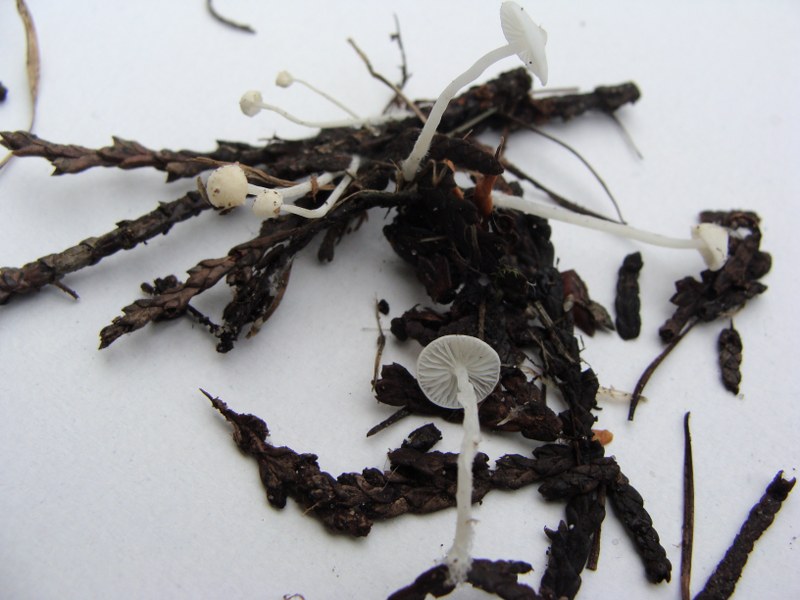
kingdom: Fungi
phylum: Basidiomycota
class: Agaricomycetes
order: Agaricales
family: Mycenaceae
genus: Hemimycena
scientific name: Hemimycena lactea
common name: mælkehvid huesvamp
